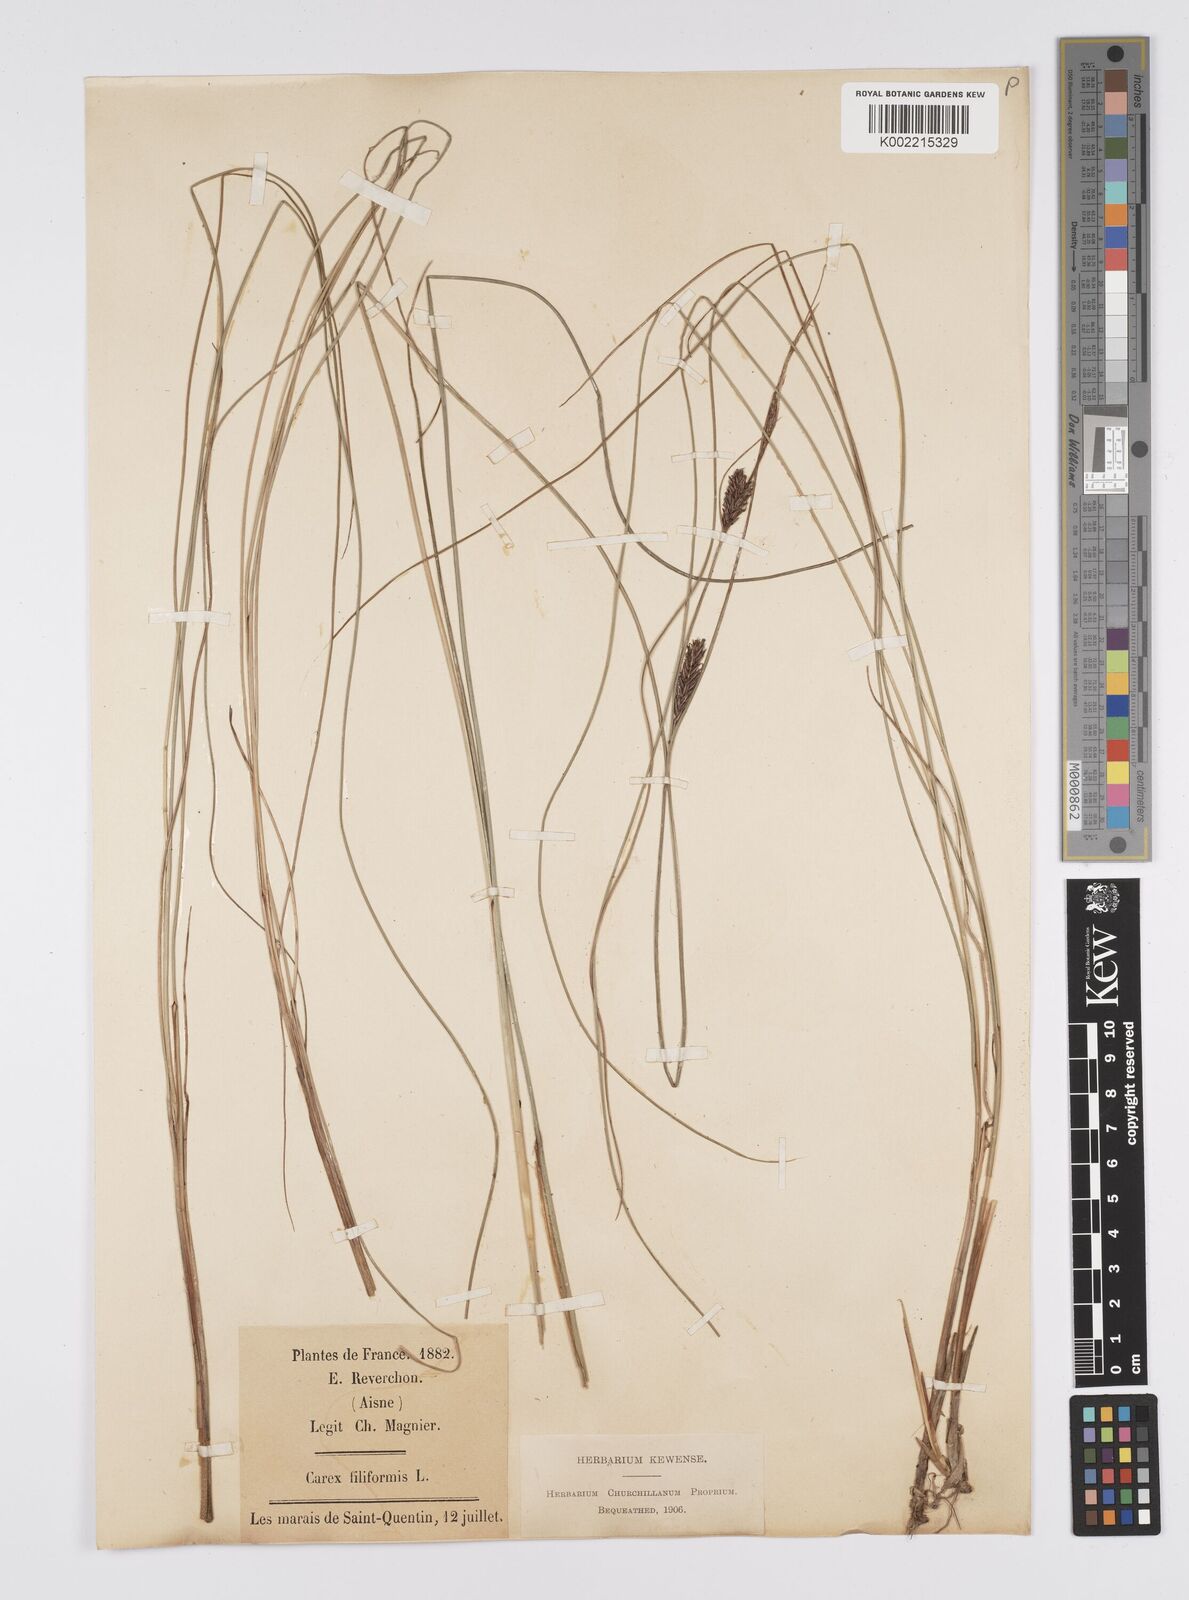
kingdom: Plantae
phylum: Tracheophyta
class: Liliopsida
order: Poales
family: Cyperaceae
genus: Carex
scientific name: Carex lasiocarpa
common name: Slender sedge
